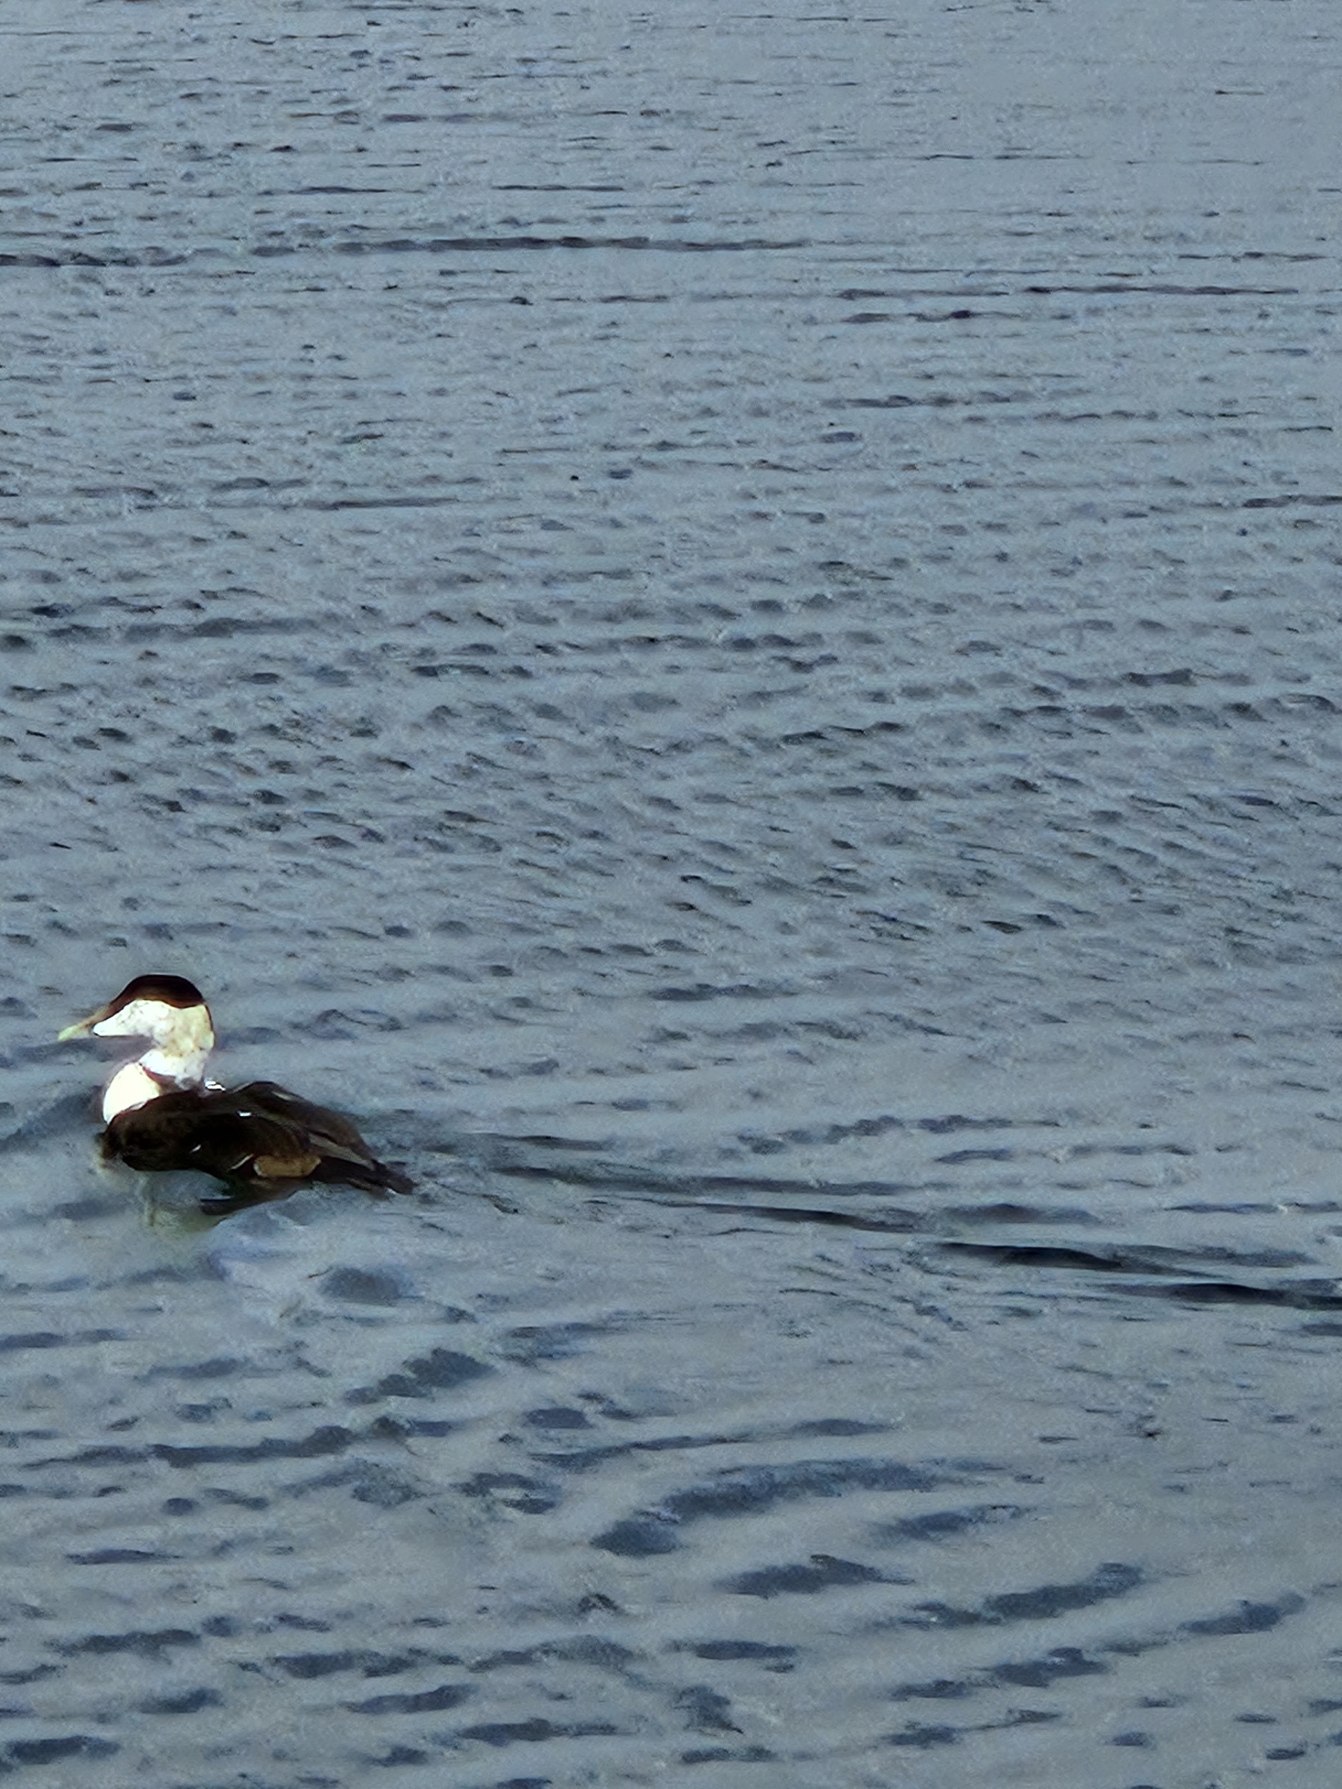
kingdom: Animalia
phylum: Chordata
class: Aves
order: Anseriformes
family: Anatidae
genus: Somateria
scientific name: Somateria mollissima
